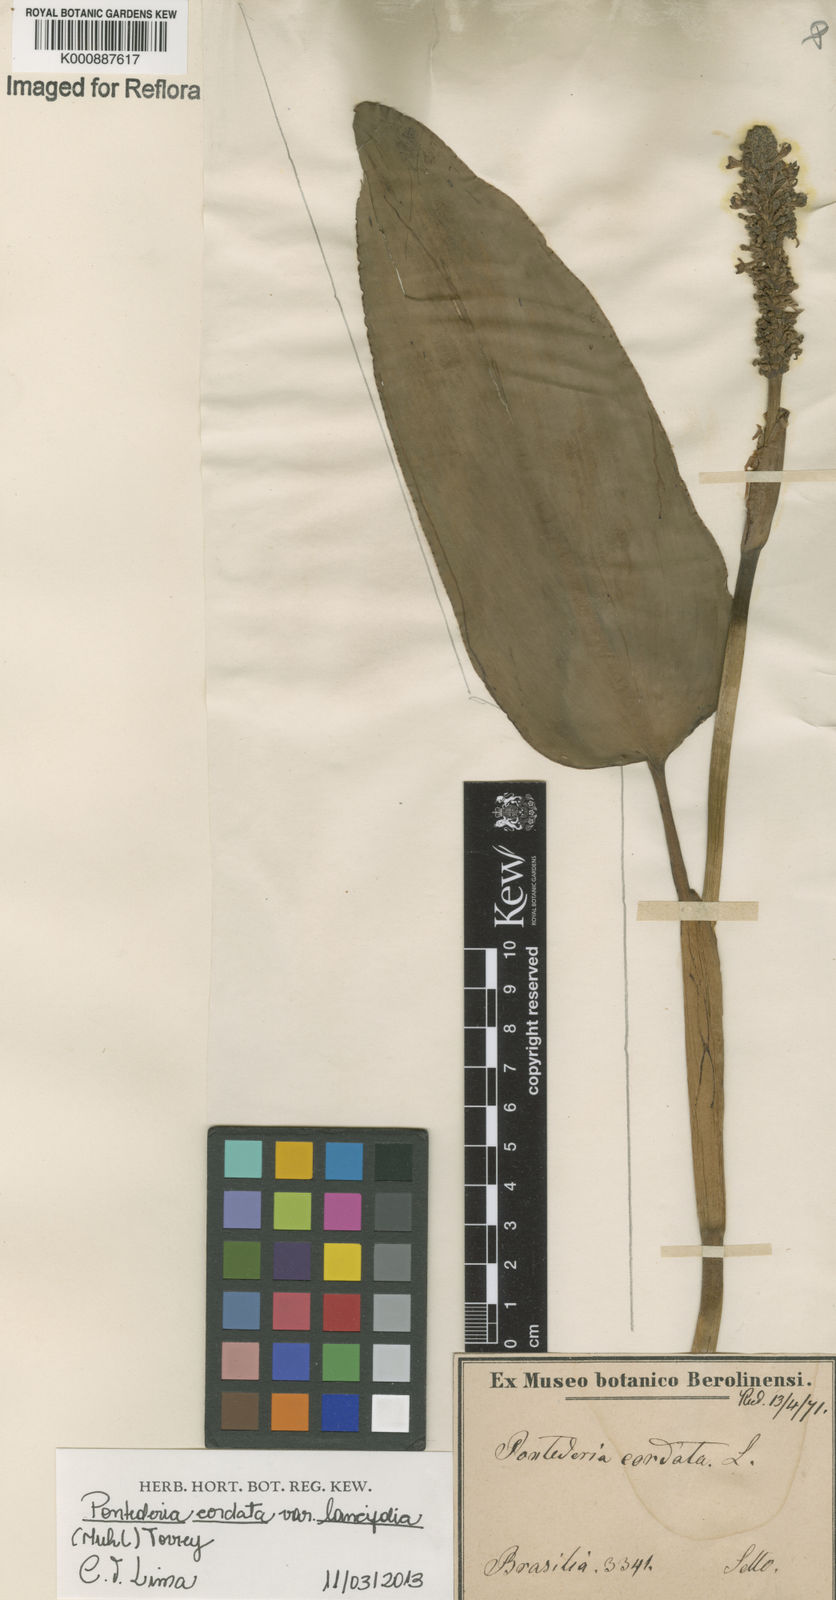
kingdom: Plantae
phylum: Tracheophyta
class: Liliopsida
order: Commelinales
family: Pontederiaceae
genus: Pontederia
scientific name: Pontederia cordata
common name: Pickerelweed
